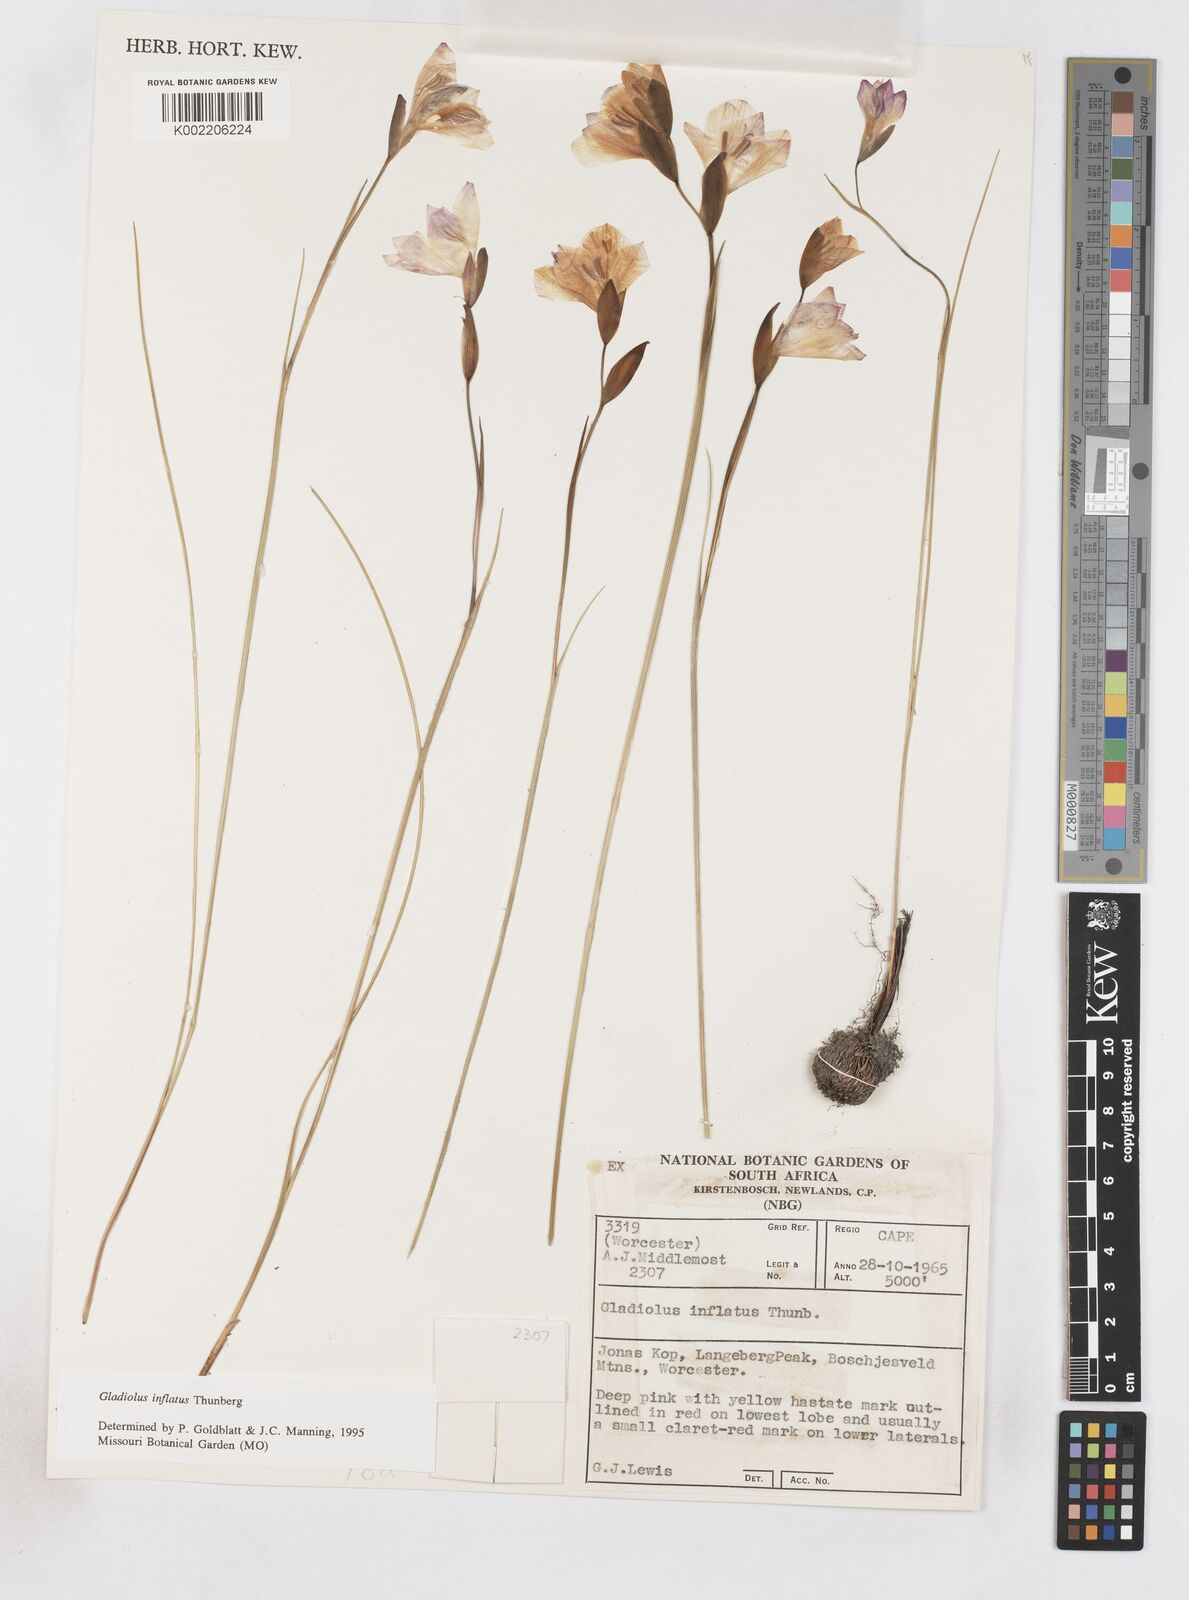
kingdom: Plantae
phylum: Tracheophyta
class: Liliopsida
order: Asparagales
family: Iridaceae
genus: Gladiolus
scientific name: Gladiolus inflatus
